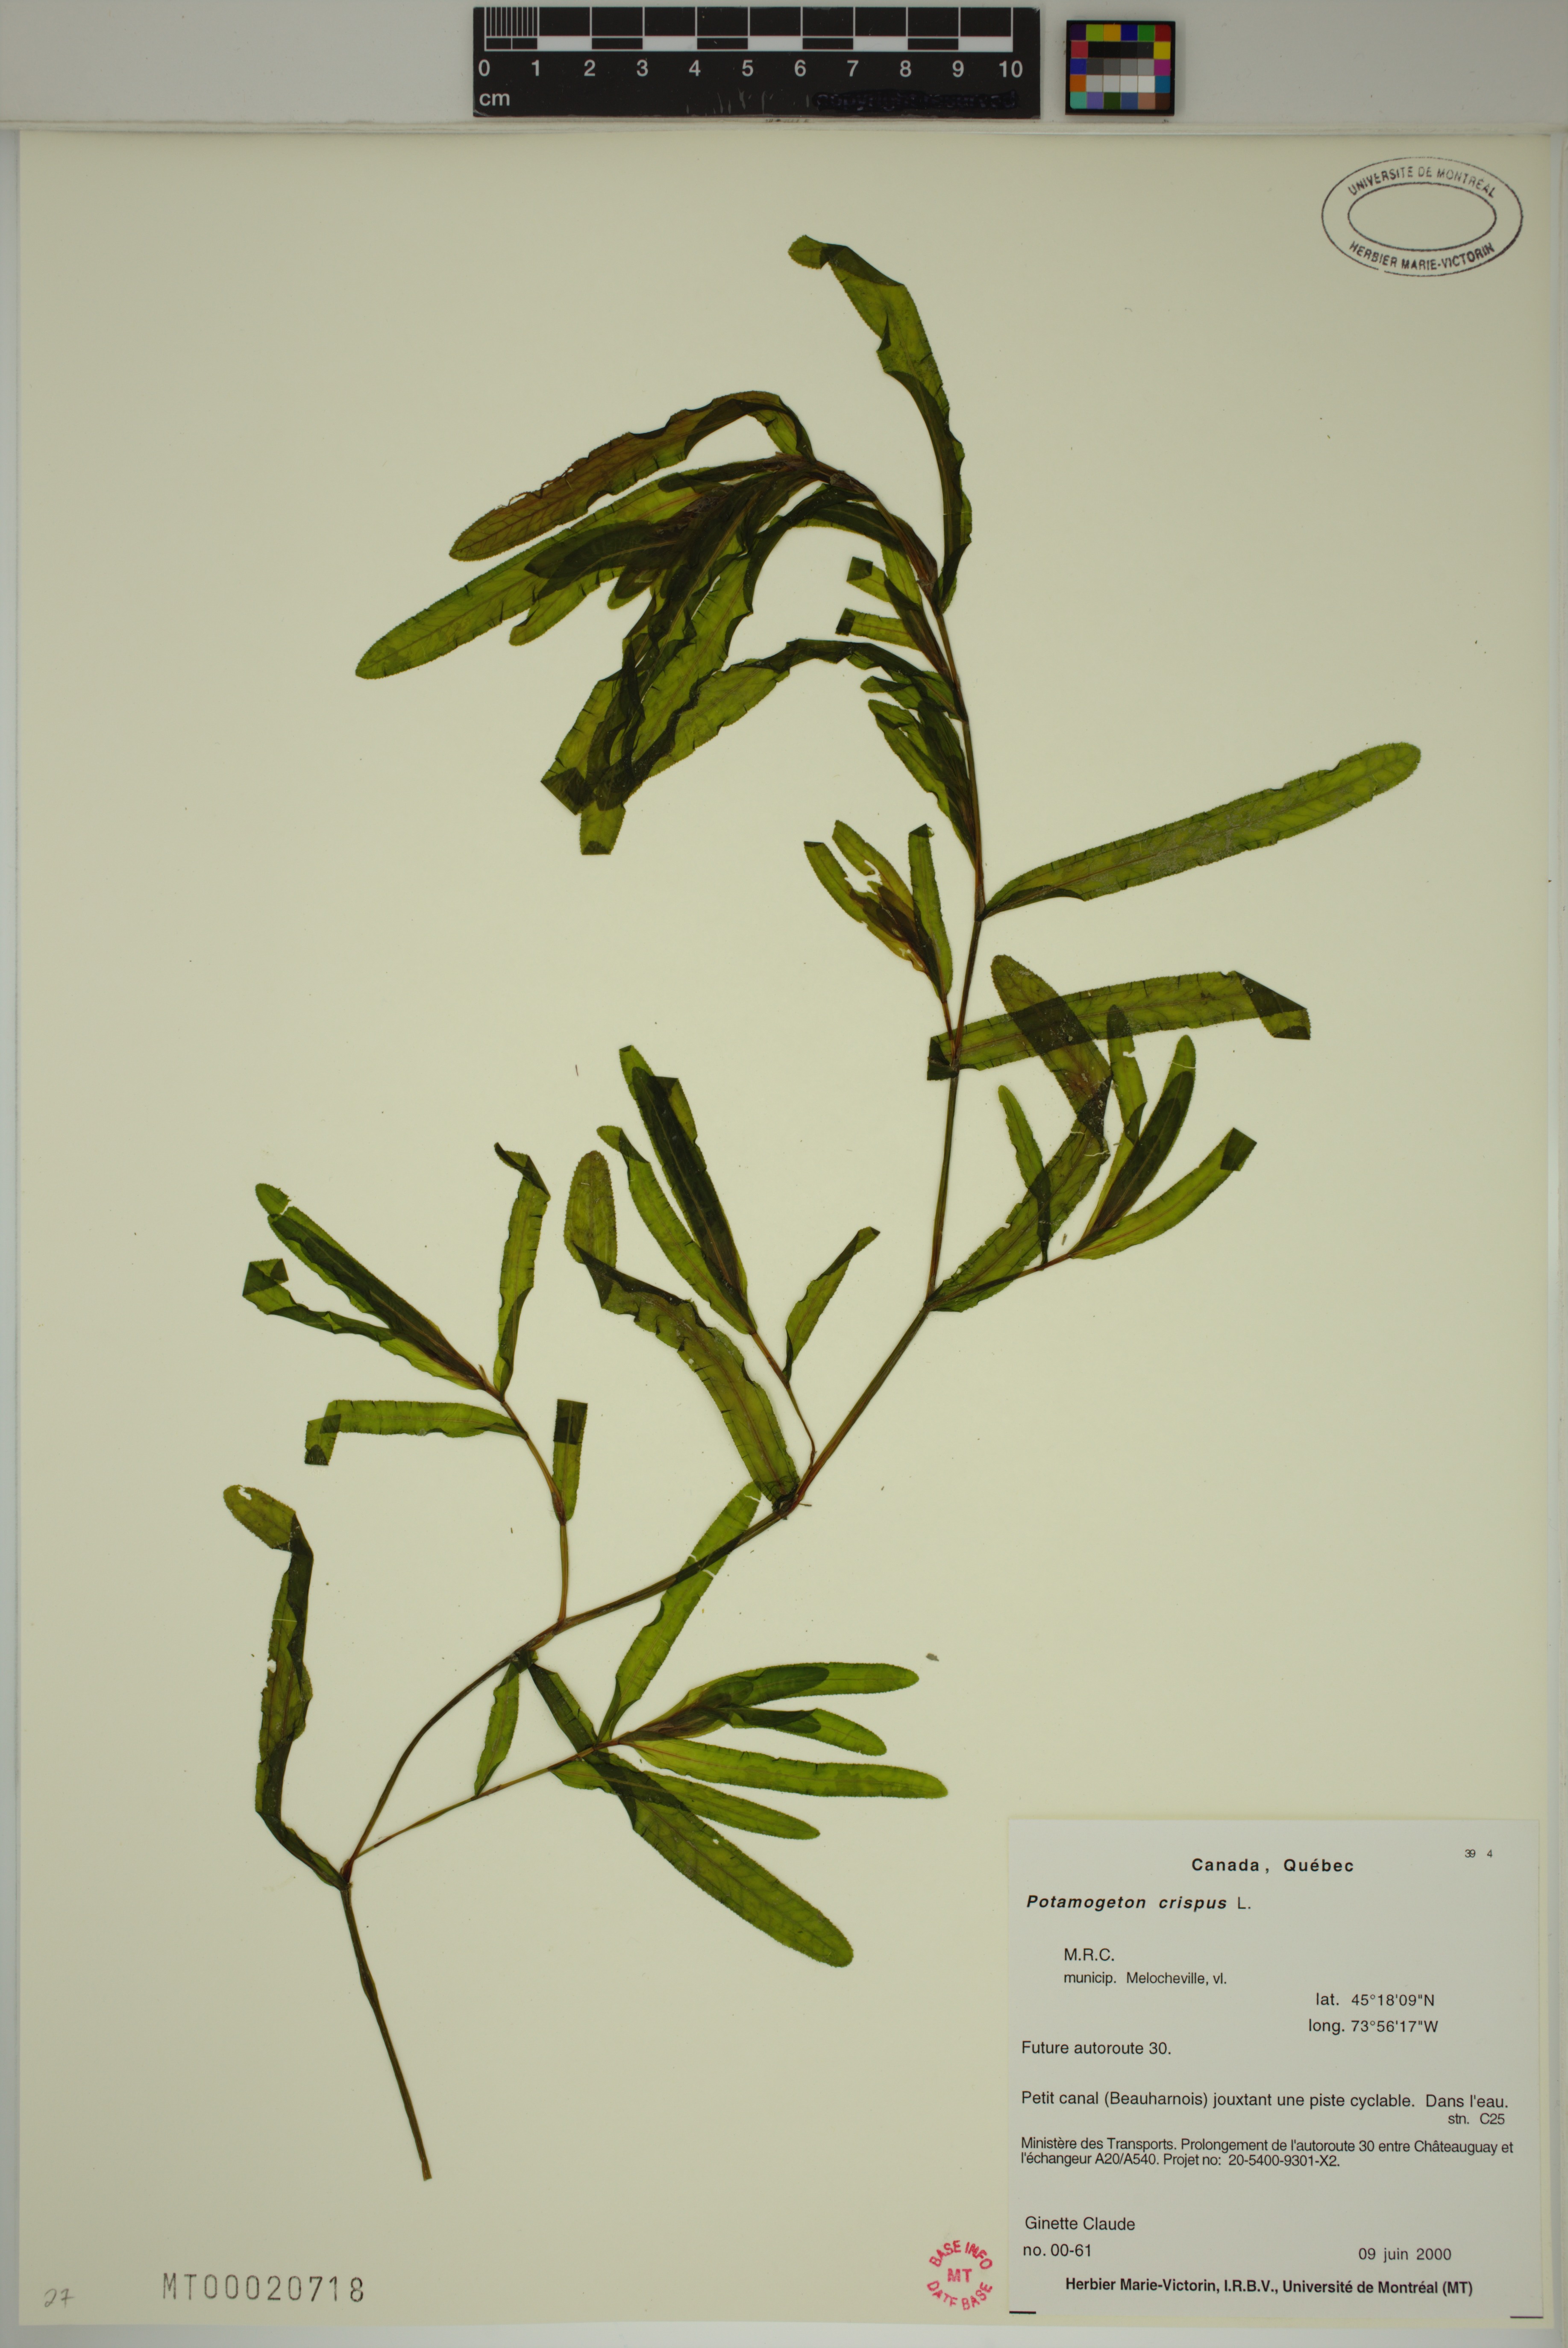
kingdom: Plantae
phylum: Tracheophyta
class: Liliopsida
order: Alismatales
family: Potamogetonaceae
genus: Potamogeton
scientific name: Potamogeton crispus
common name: Curled pondweed
